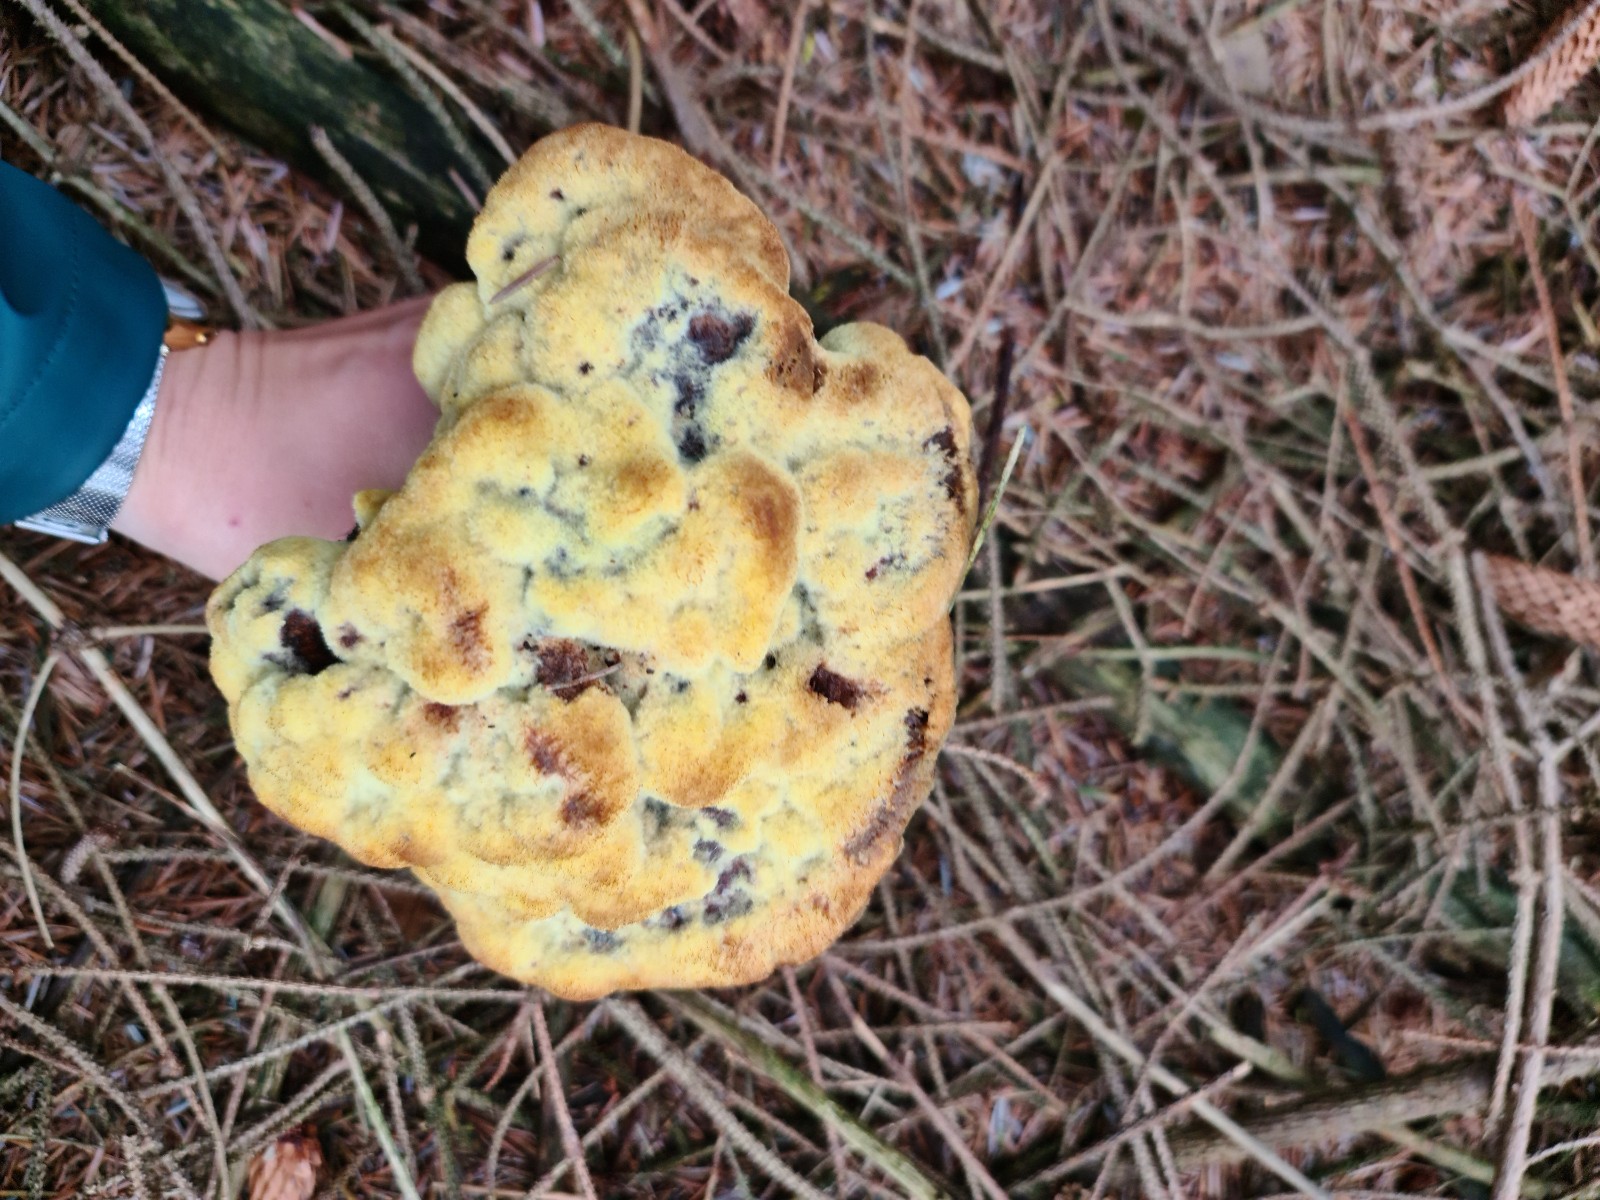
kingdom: Fungi
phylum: Basidiomycota
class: Agaricomycetes
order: Polyporales
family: Laetiporaceae
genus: Phaeolus
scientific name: Phaeolus schweinitzii
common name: brunporesvamp
